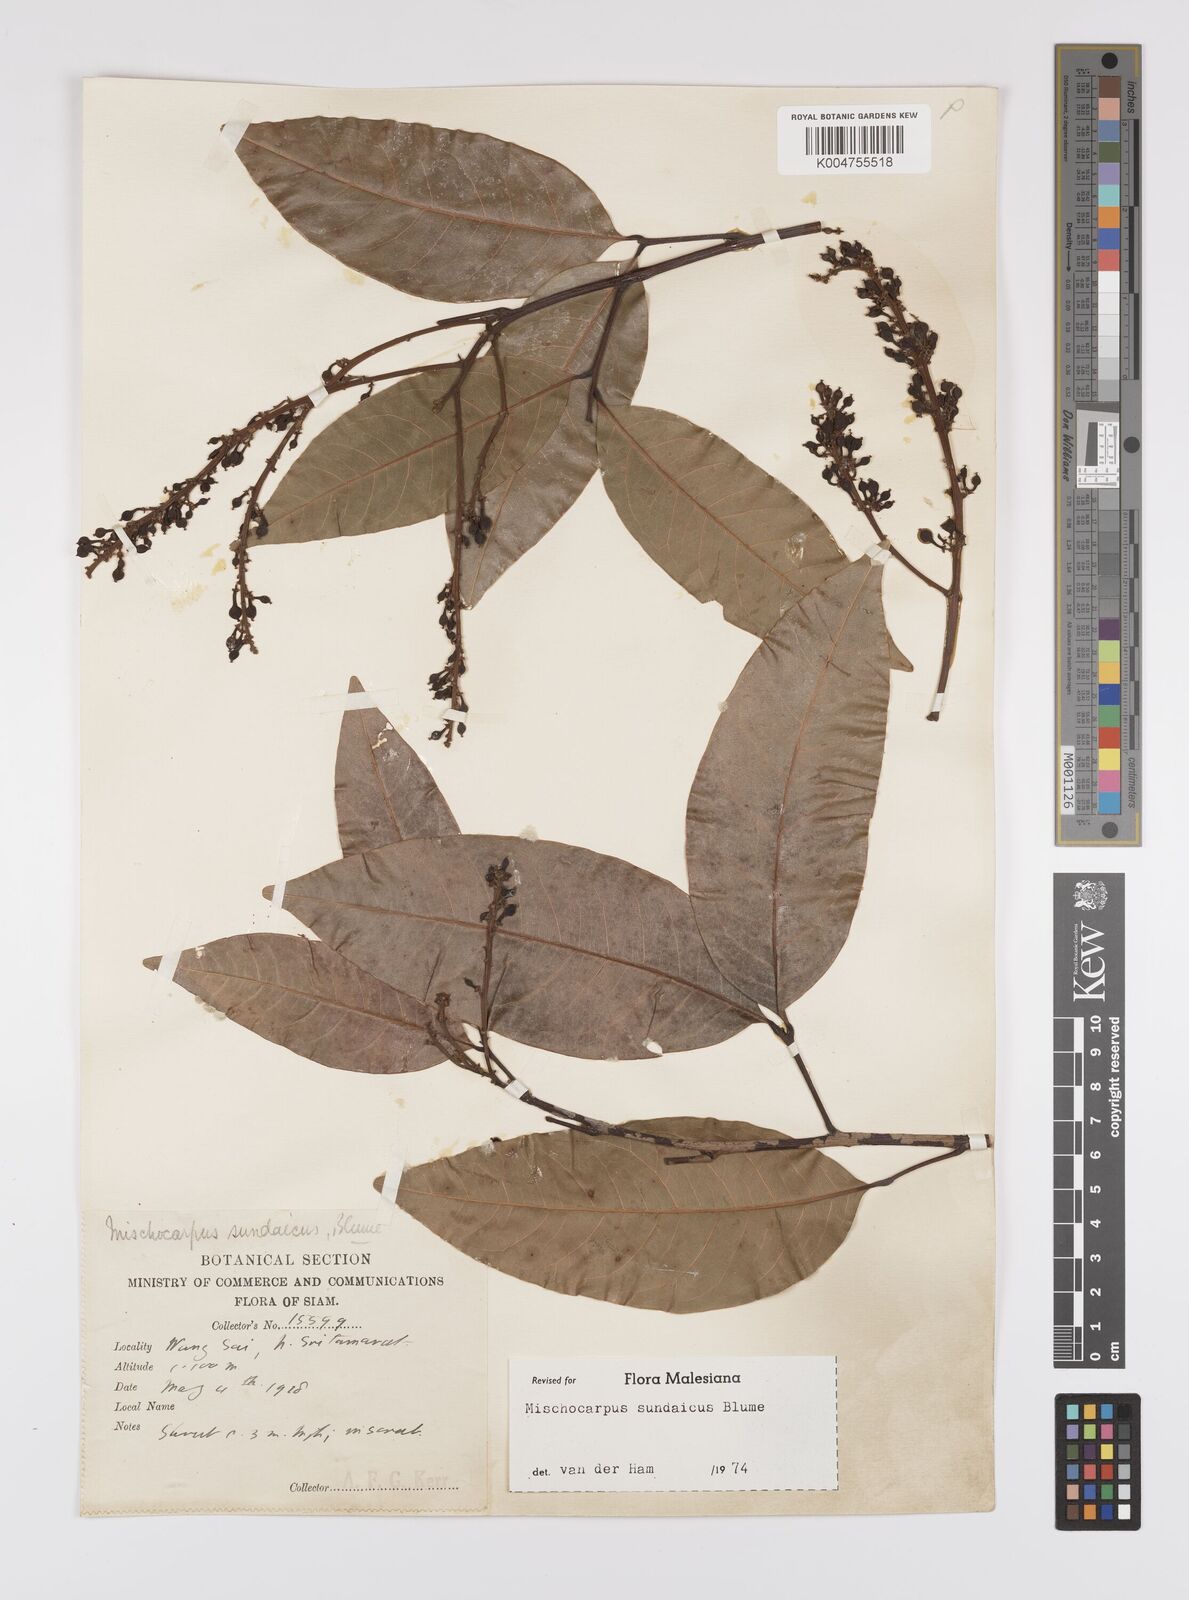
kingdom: Plantae
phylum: Tracheophyta
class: Magnoliopsida
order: Sapindales
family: Sapindaceae
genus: Mischocarpus
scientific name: Mischocarpus sundaicus
